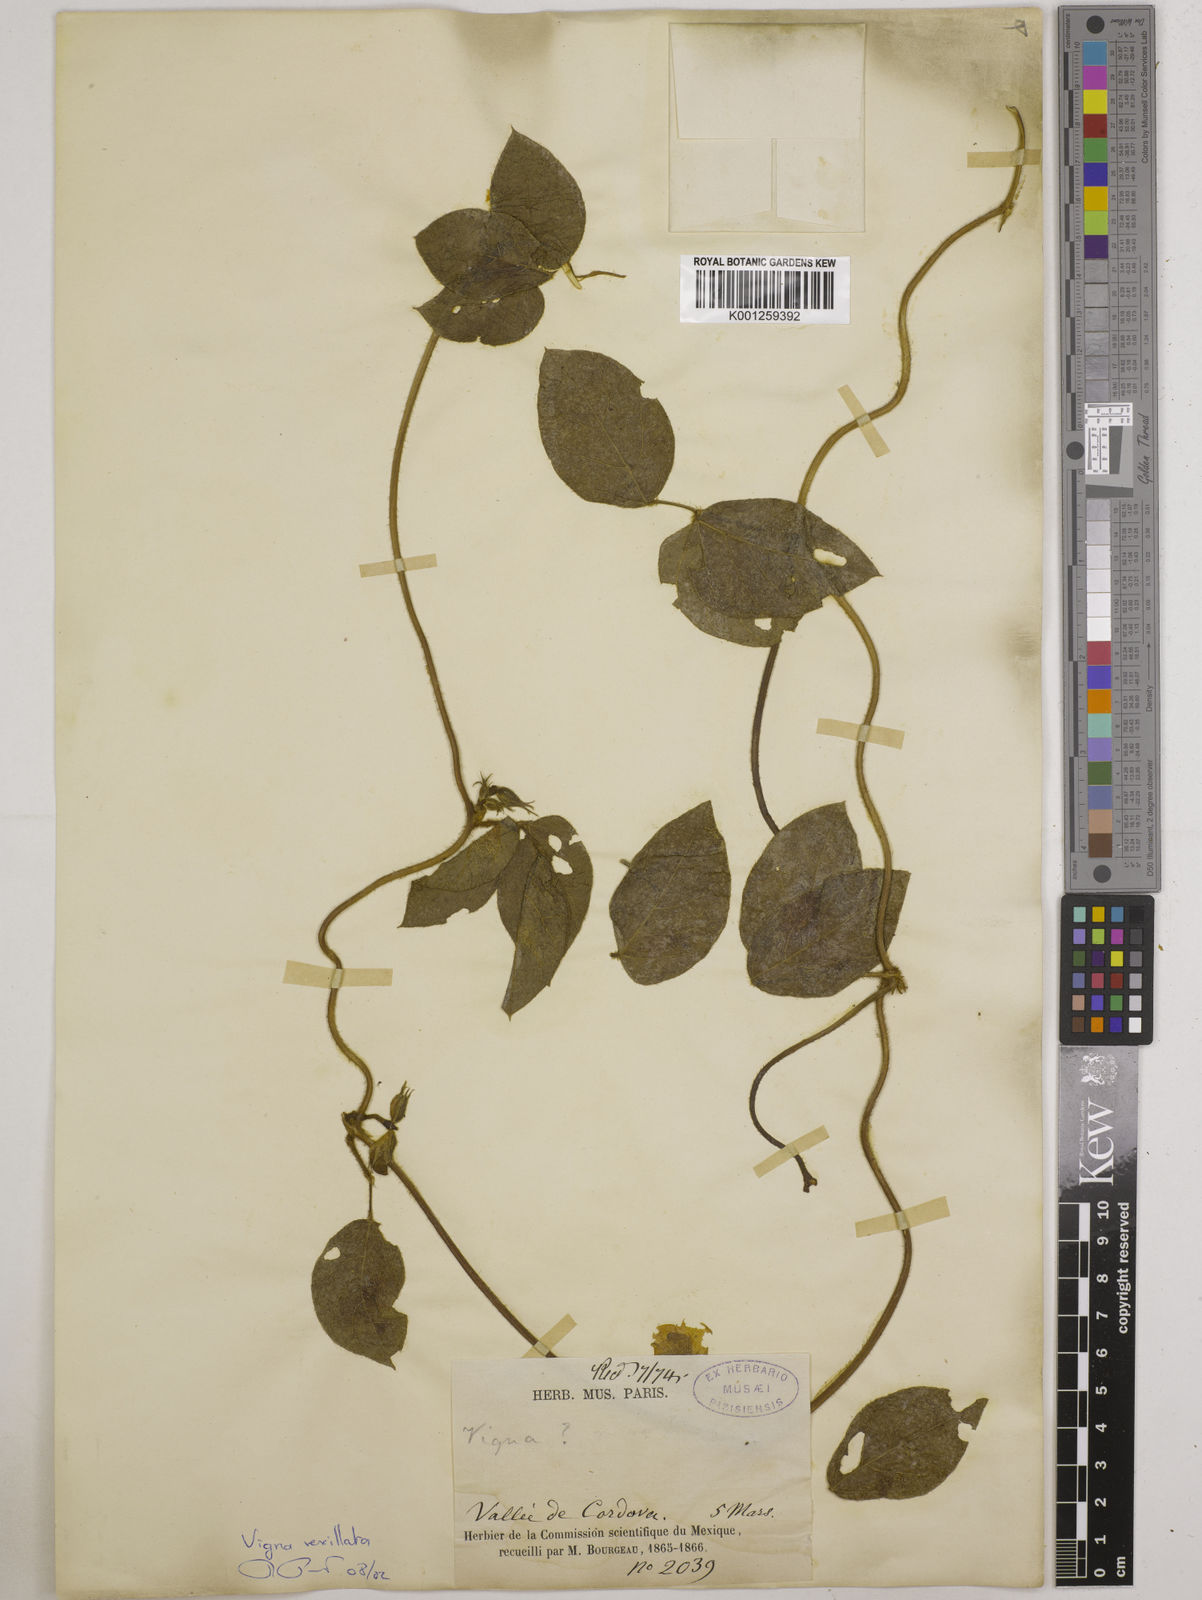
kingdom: Plantae
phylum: Tracheophyta
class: Magnoliopsida
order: Fabales
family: Fabaceae
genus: Vigna
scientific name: Vigna vexillata
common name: Zombi pea
